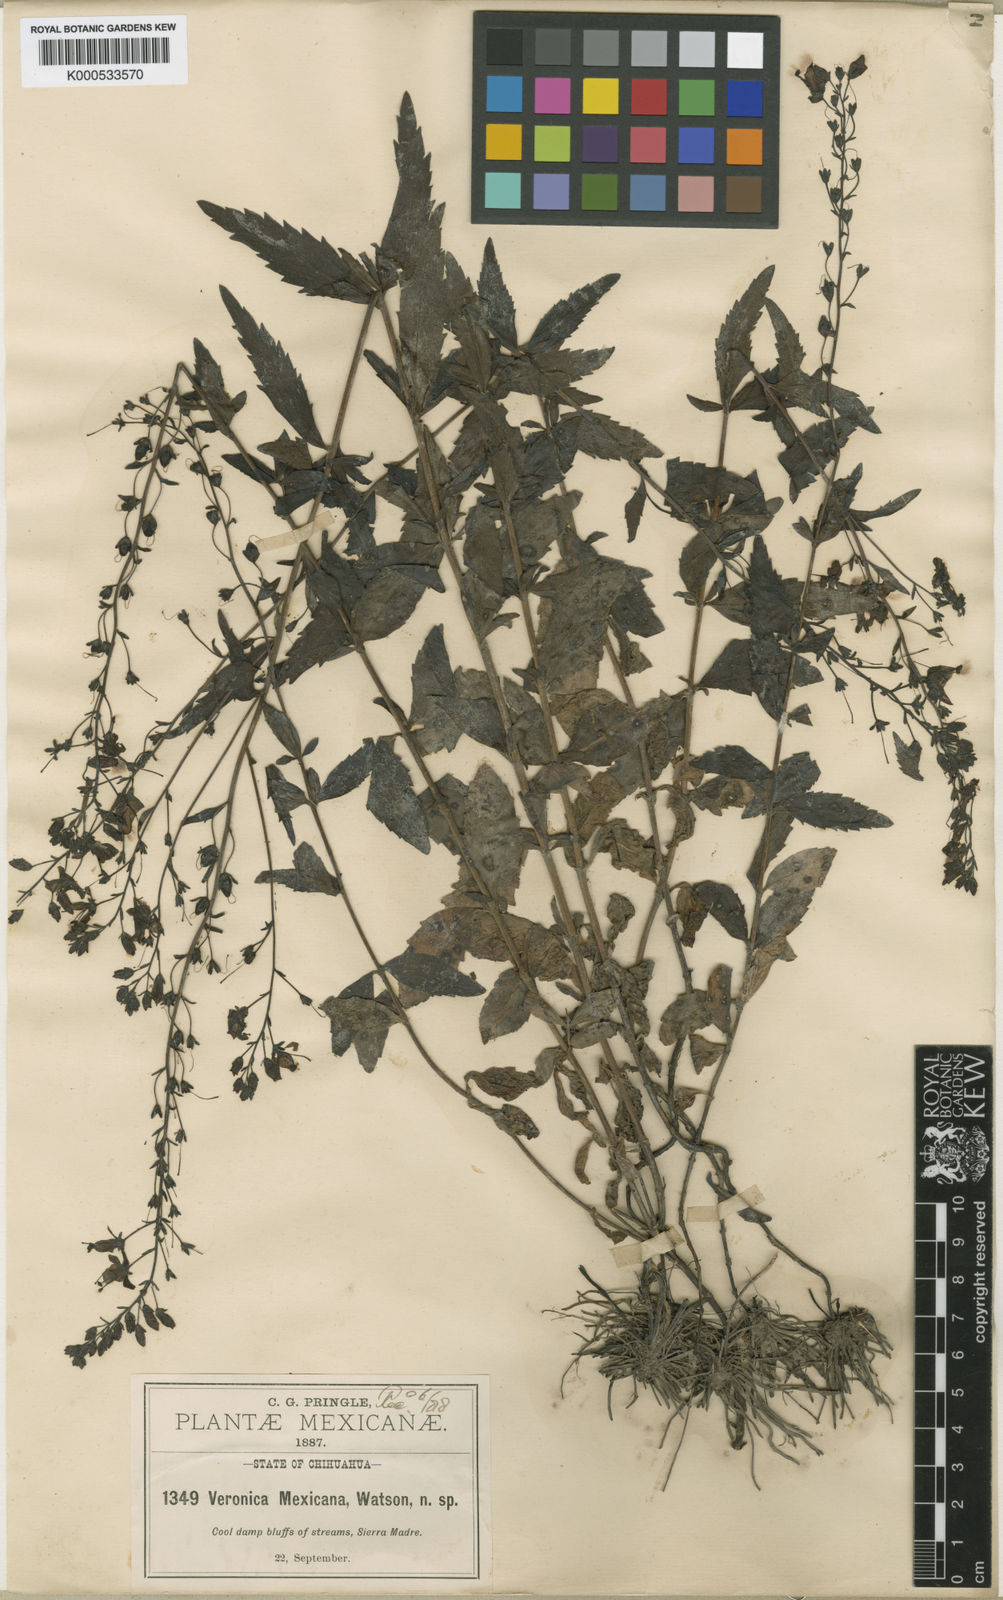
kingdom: Plantae
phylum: Tracheophyta
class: Magnoliopsida
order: Lamiales
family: Plantaginaceae
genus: Veronica
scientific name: Veronica mexicana
